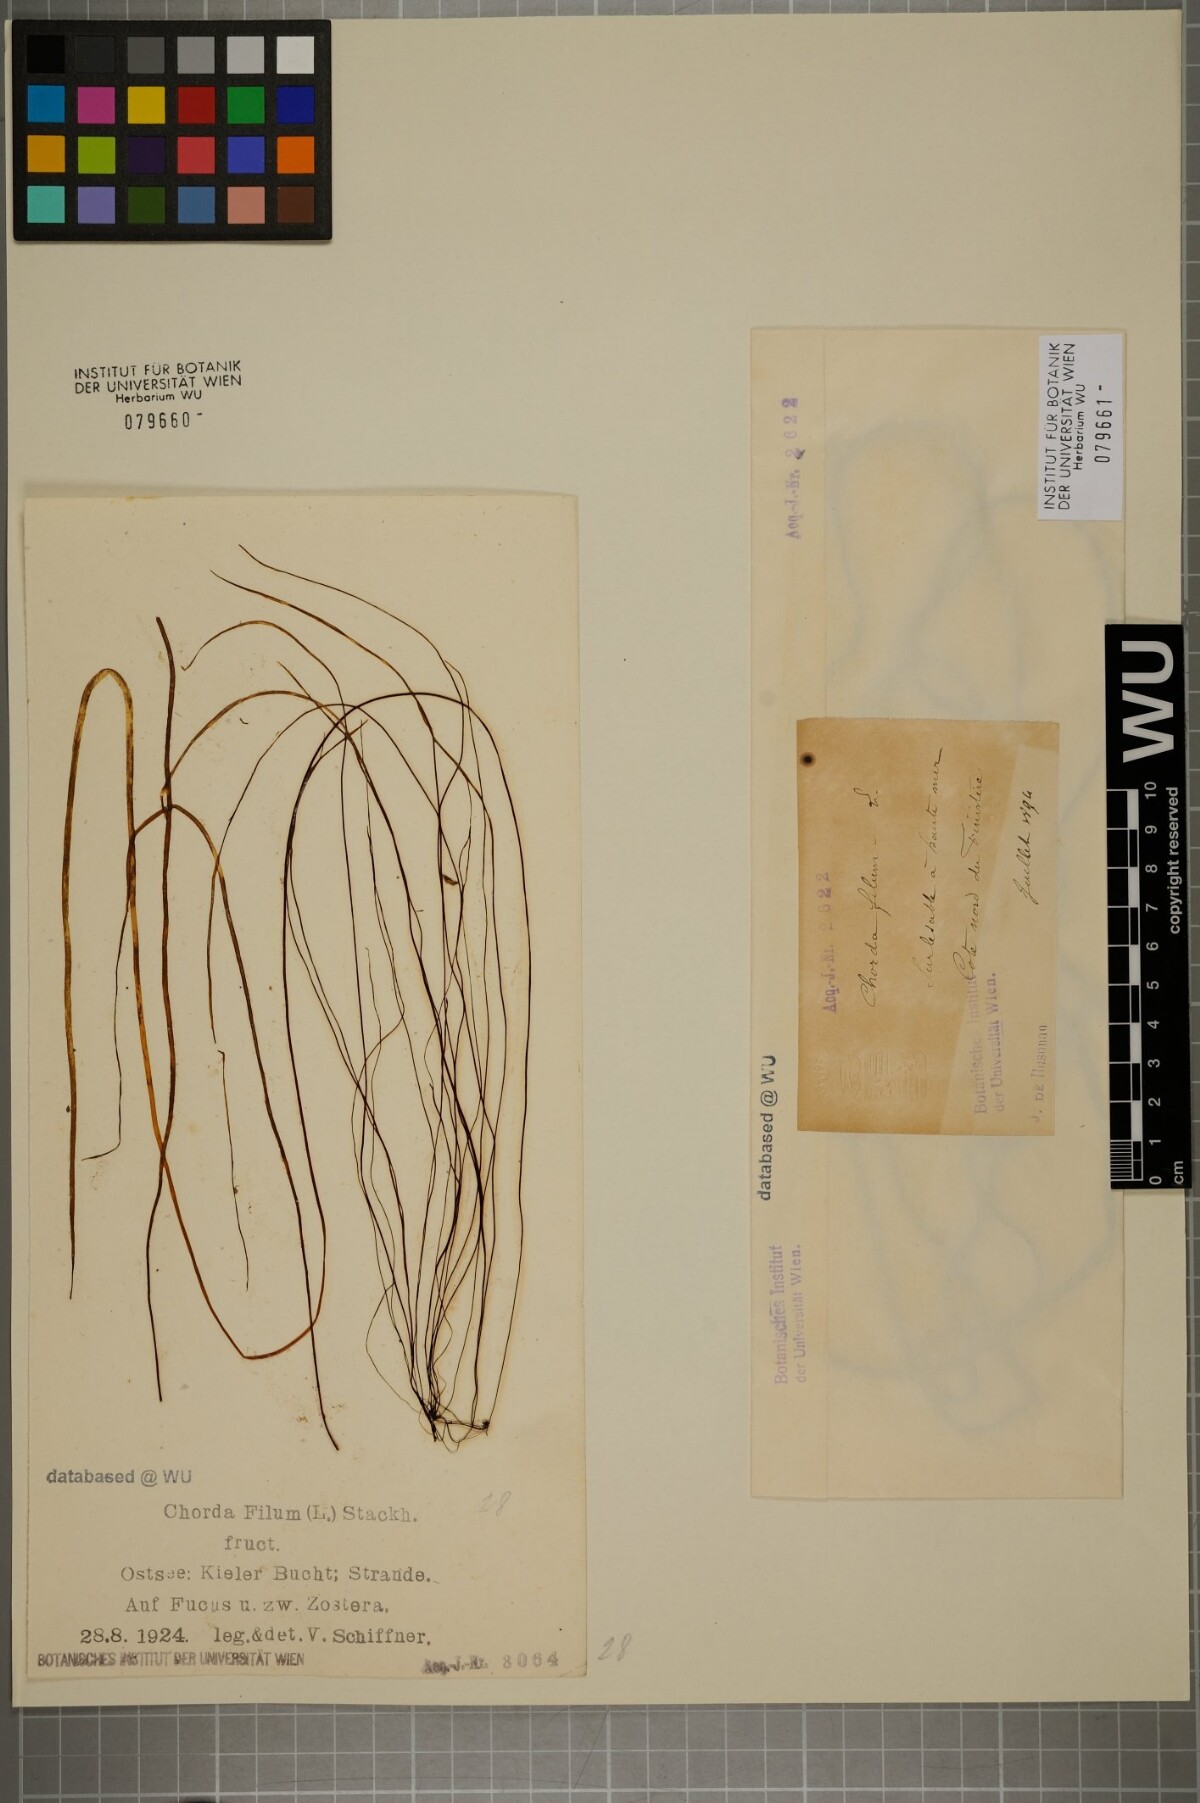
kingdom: Chromista
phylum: Ochrophyta
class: Phaeophyceae
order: Laminariales
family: Chordaceae
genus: Chorda
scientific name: Chorda filum
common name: Mermaid's tresses
